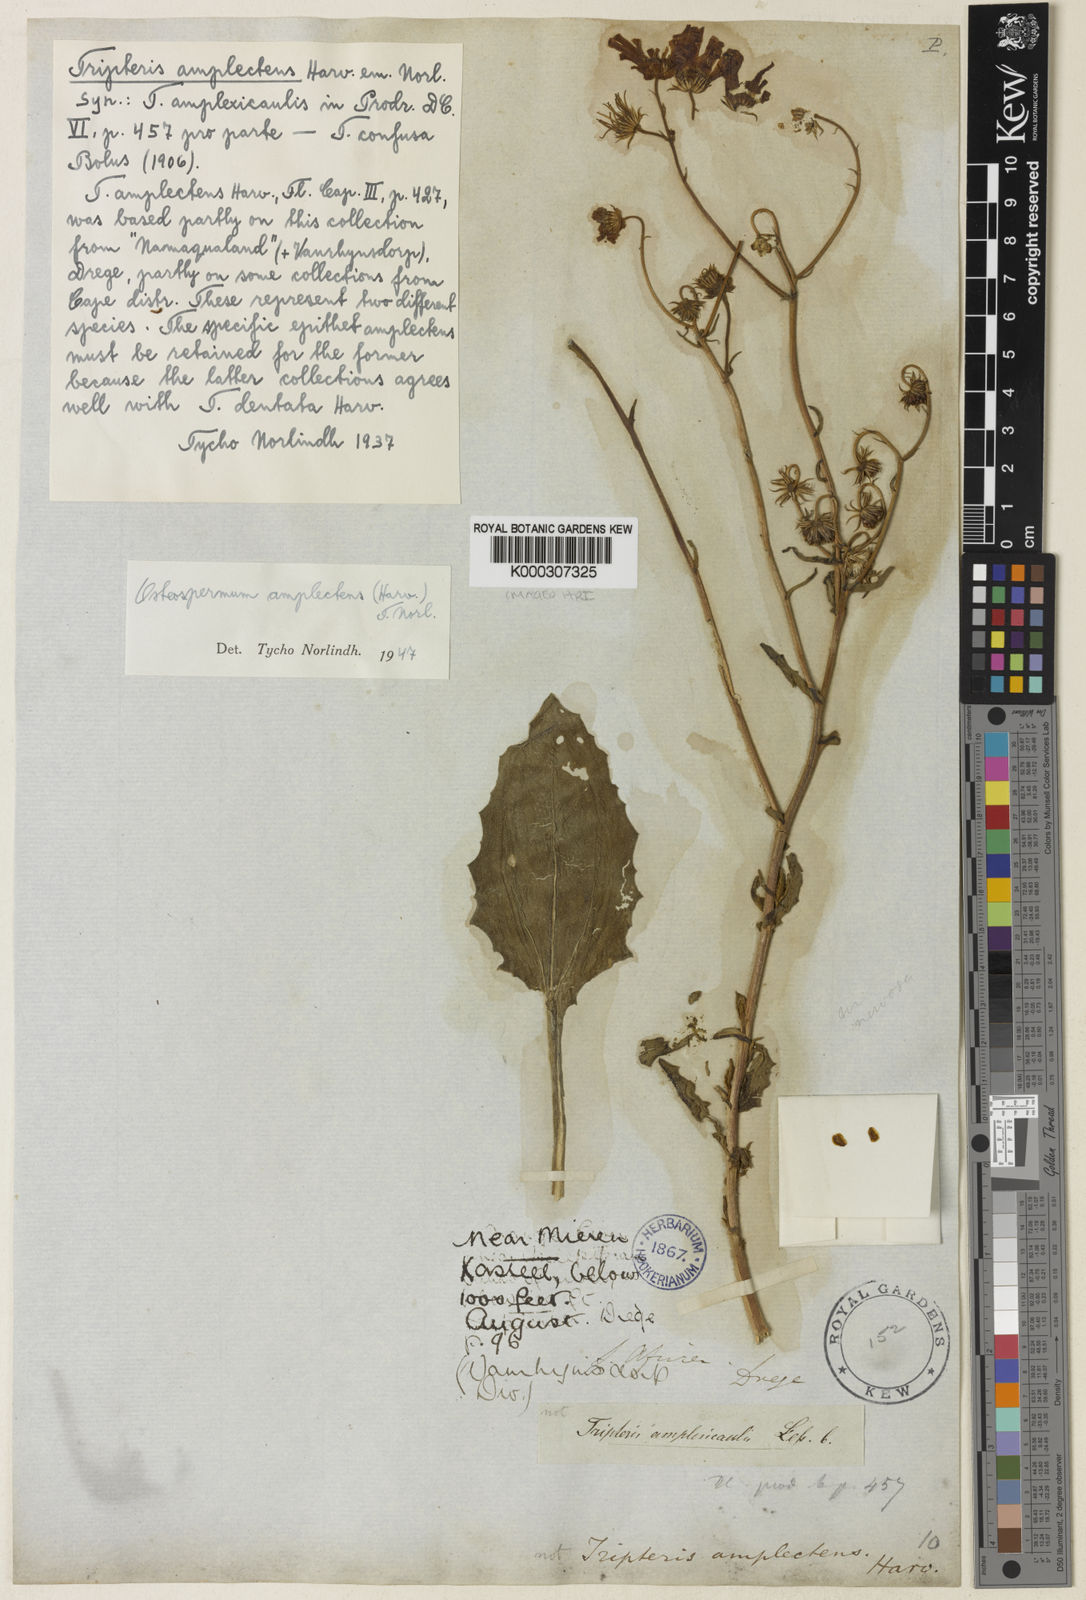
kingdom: Plantae
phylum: Tracheophyta
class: Magnoliopsida
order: Asterales
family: Asteraceae
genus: Osteospermum
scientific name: Osteospermum amplectens
